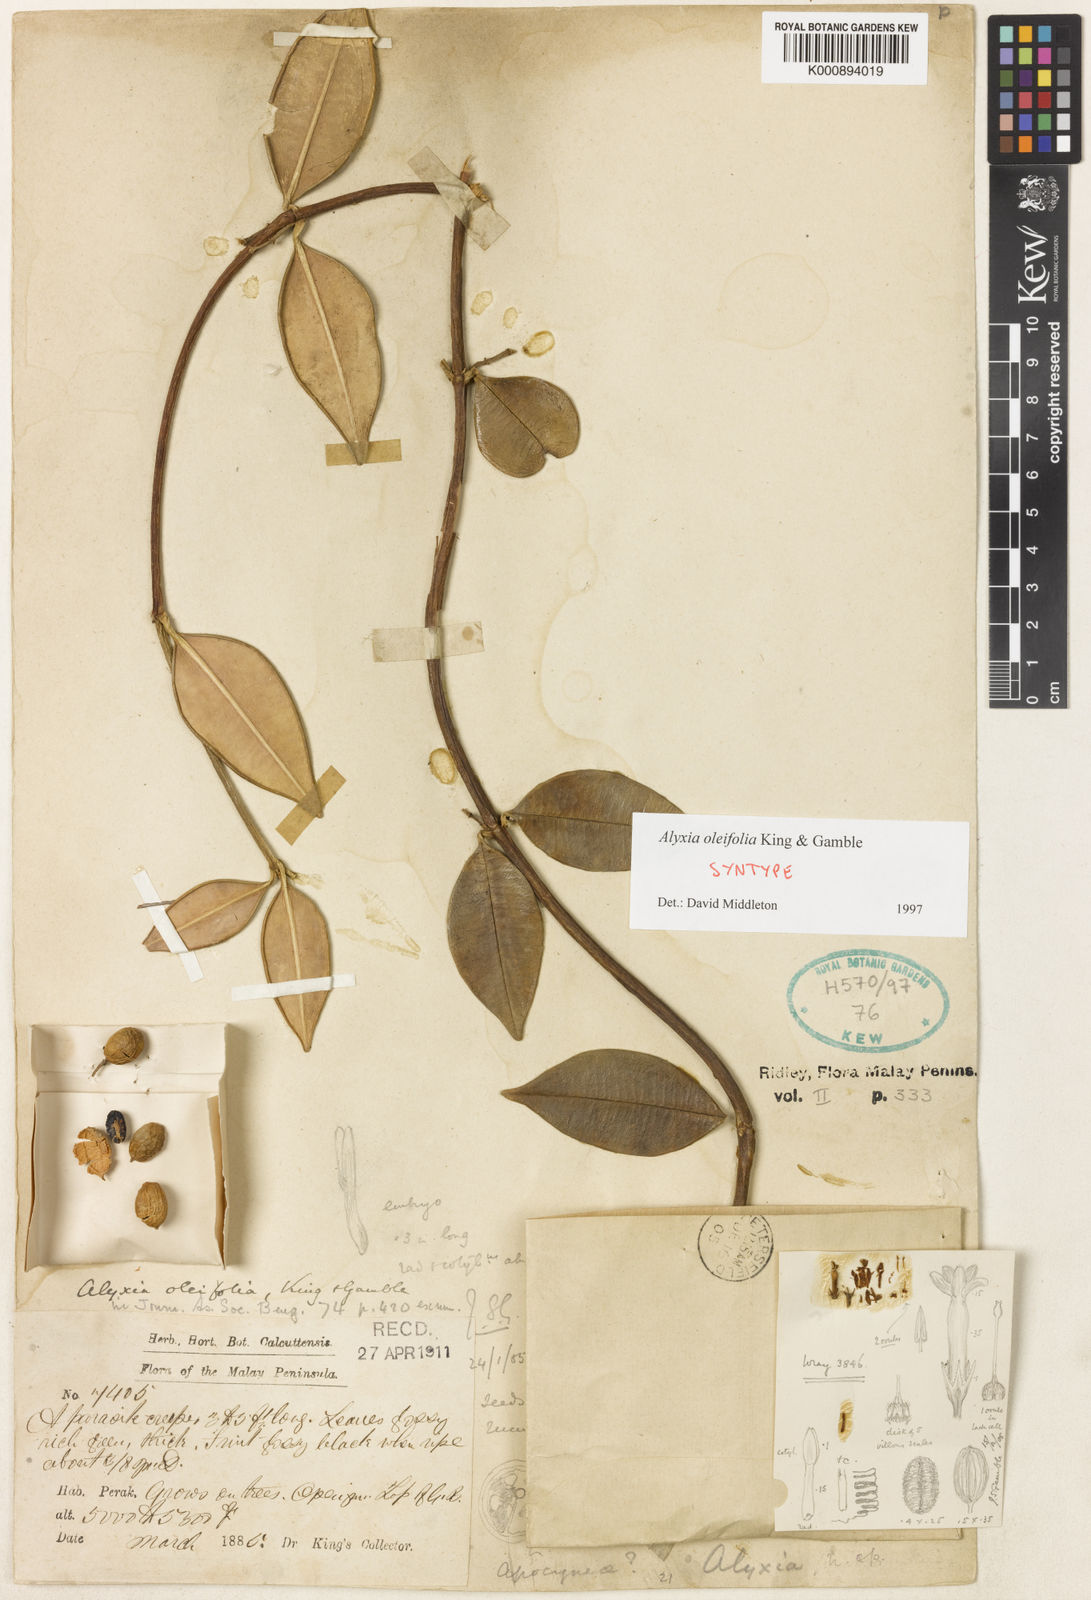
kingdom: Plantae
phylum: Tracheophyta
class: Magnoliopsida
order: Gentianales
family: Apocynaceae
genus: Alyxia
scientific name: Alyxia oleifolia
